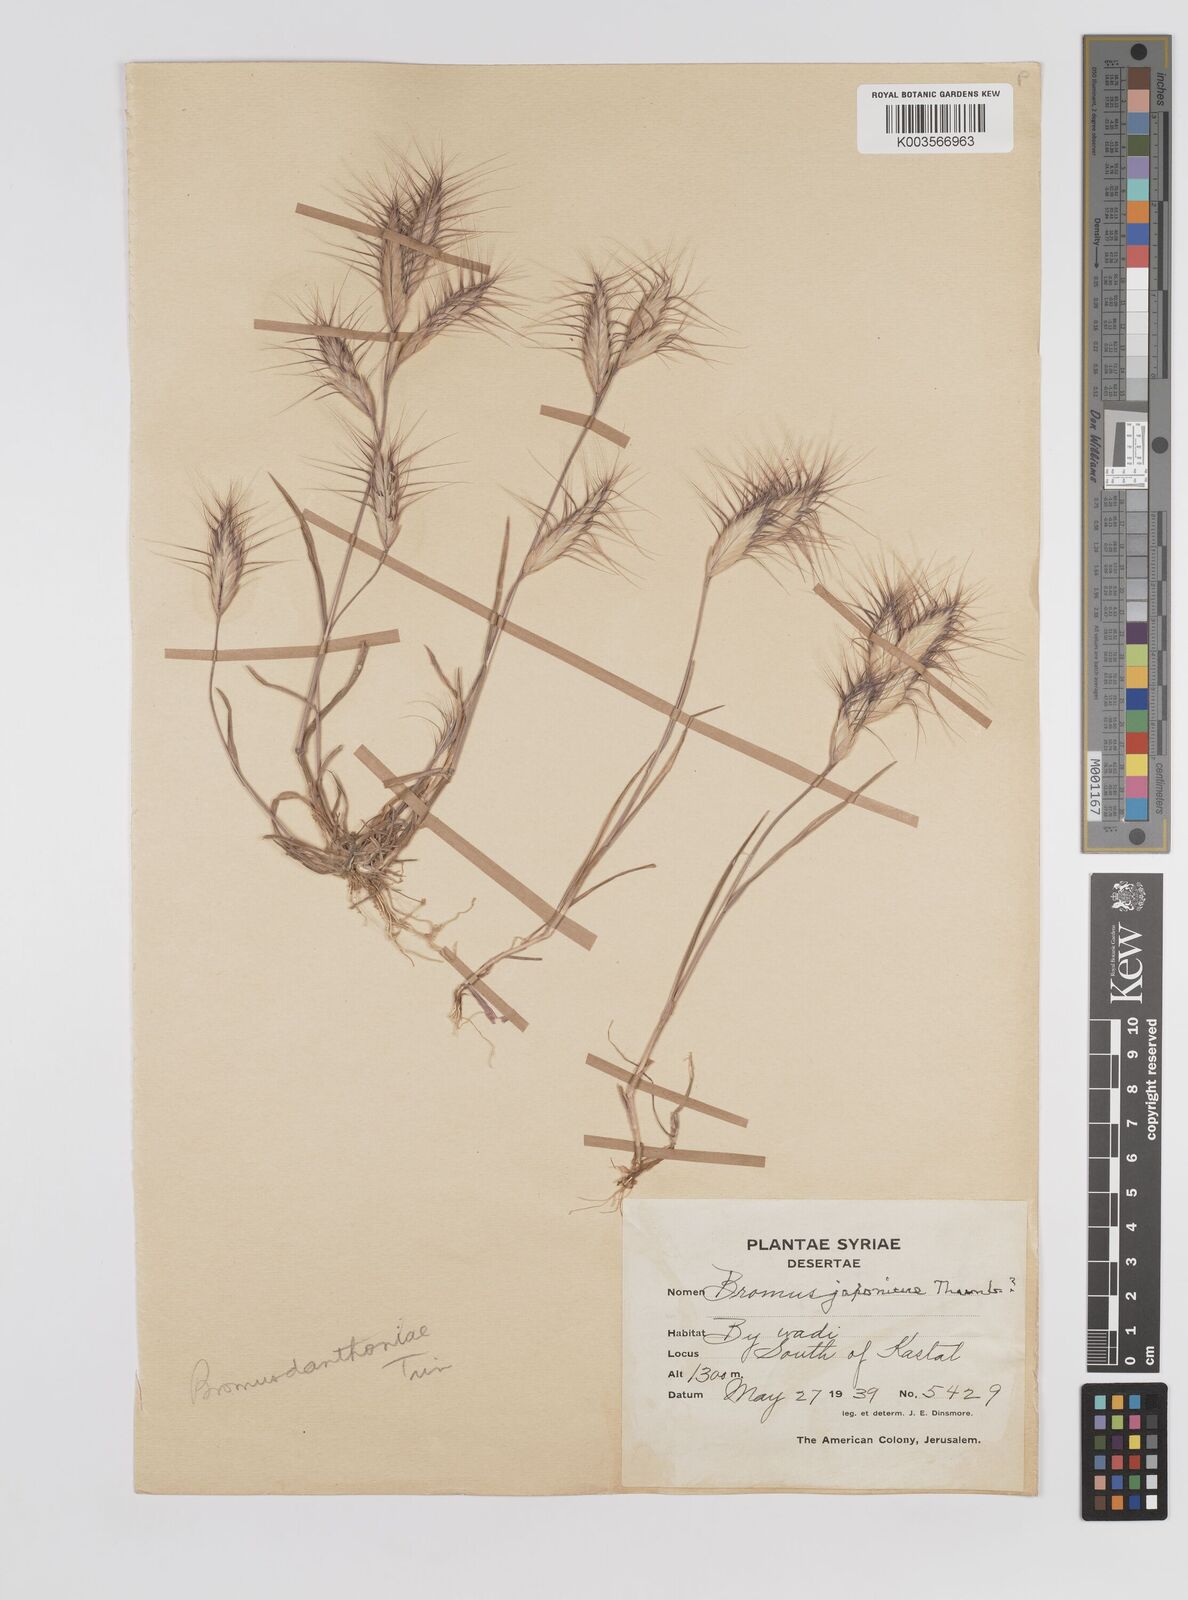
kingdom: Plantae
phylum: Tracheophyta
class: Liliopsida
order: Poales
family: Poaceae
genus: Bromus
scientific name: Bromus danthoniae
